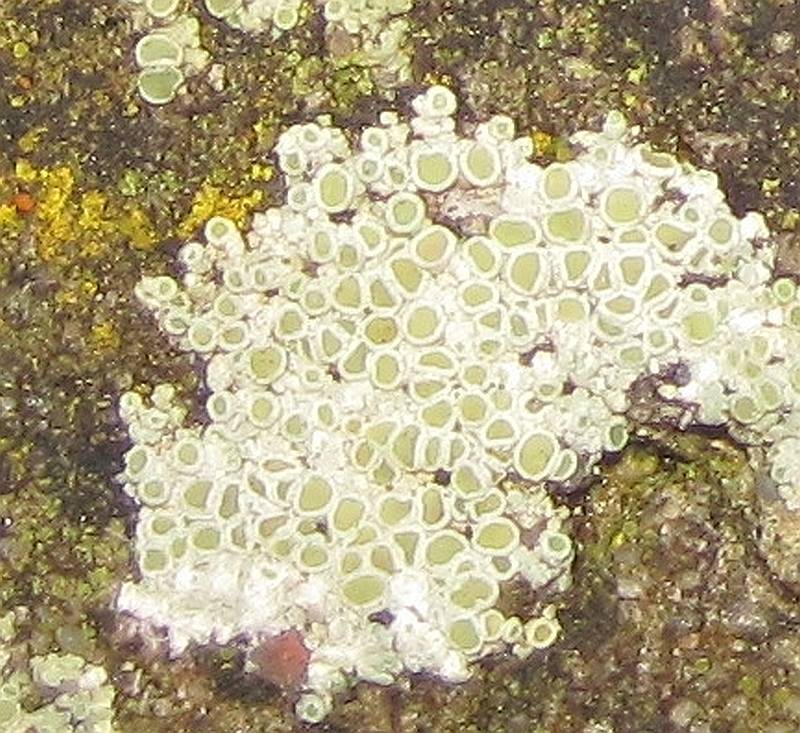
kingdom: Fungi
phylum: Ascomycota
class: Lecanoromycetes
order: Lecanorales
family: Lecanoraceae
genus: Polyozosia
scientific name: Polyozosia albescens
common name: cement-kantskivelav
